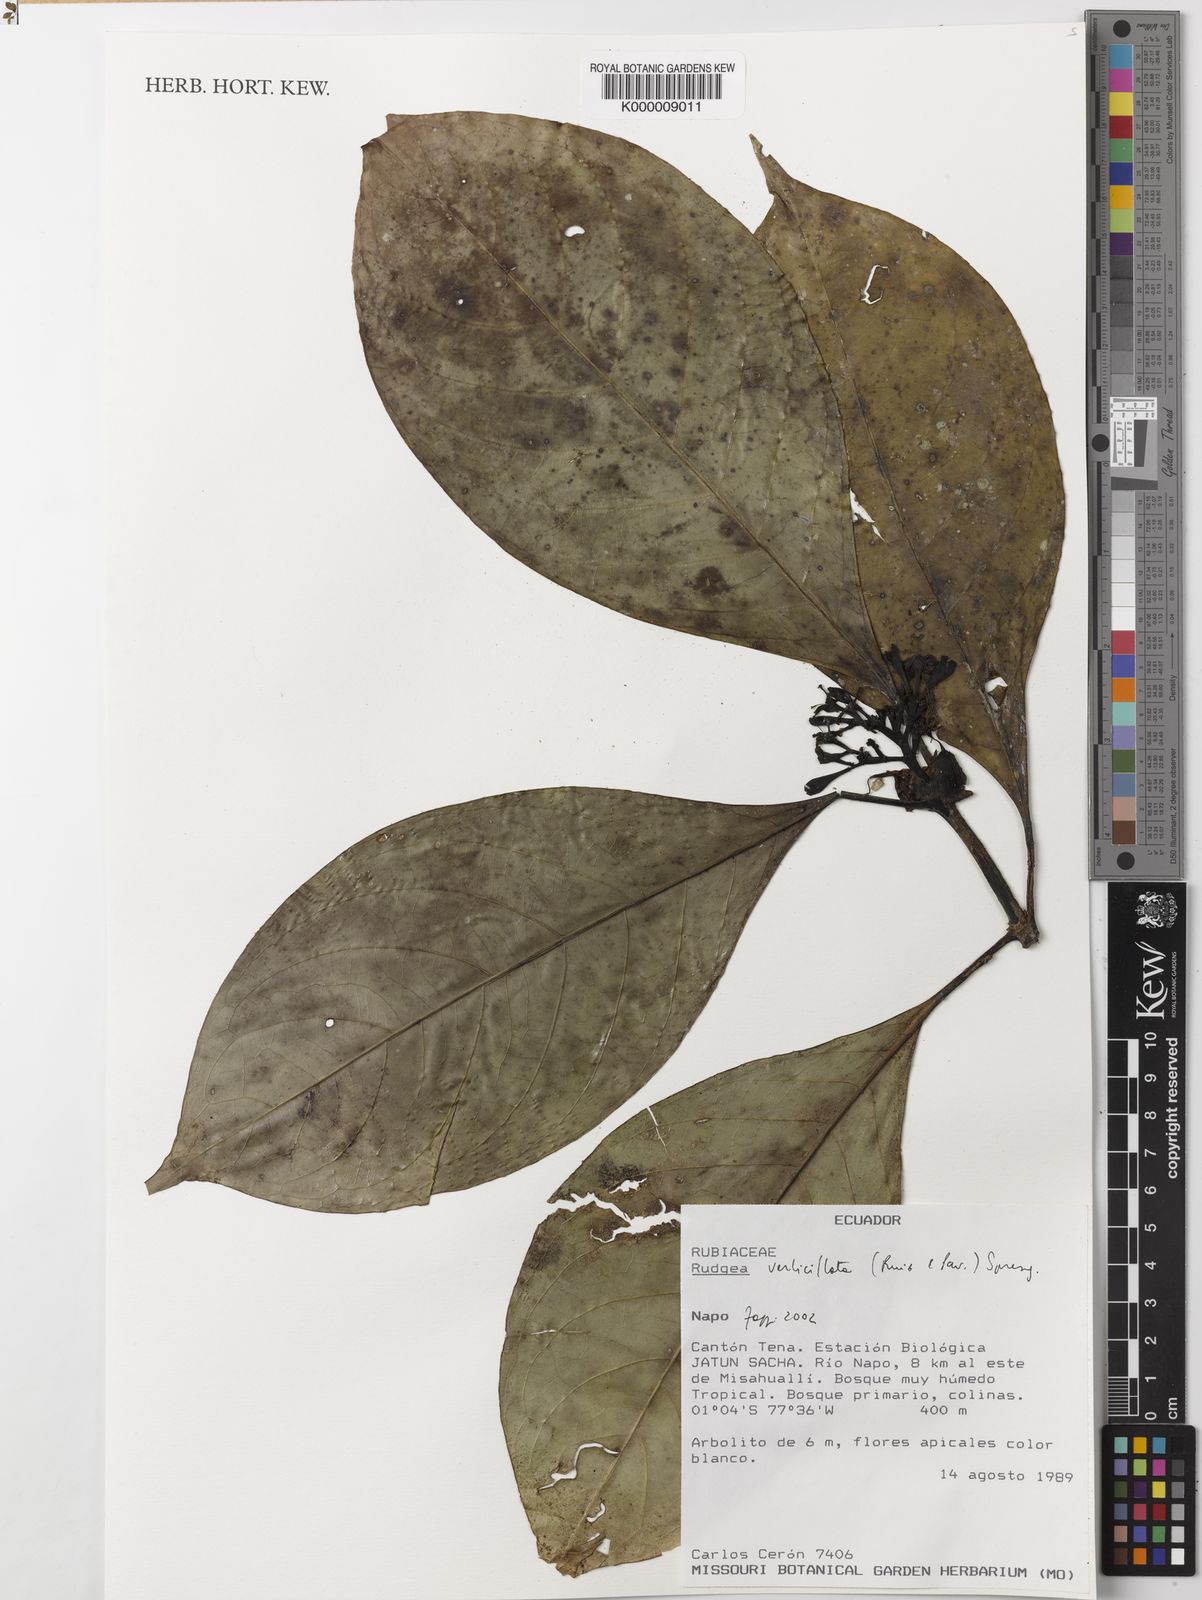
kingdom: Plantae
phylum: Tracheophyta
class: Magnoliopsida
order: Gentianales
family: Rubiaceae
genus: Rudgea
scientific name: Rudgea verticillata
